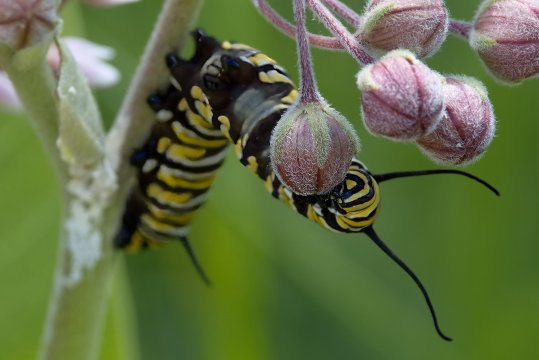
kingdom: Animalia
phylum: Arthropoda
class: Insecta
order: Lepidoptera
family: Nymphalidae
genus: Danaus
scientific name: Danaus plexippus
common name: Monarch
